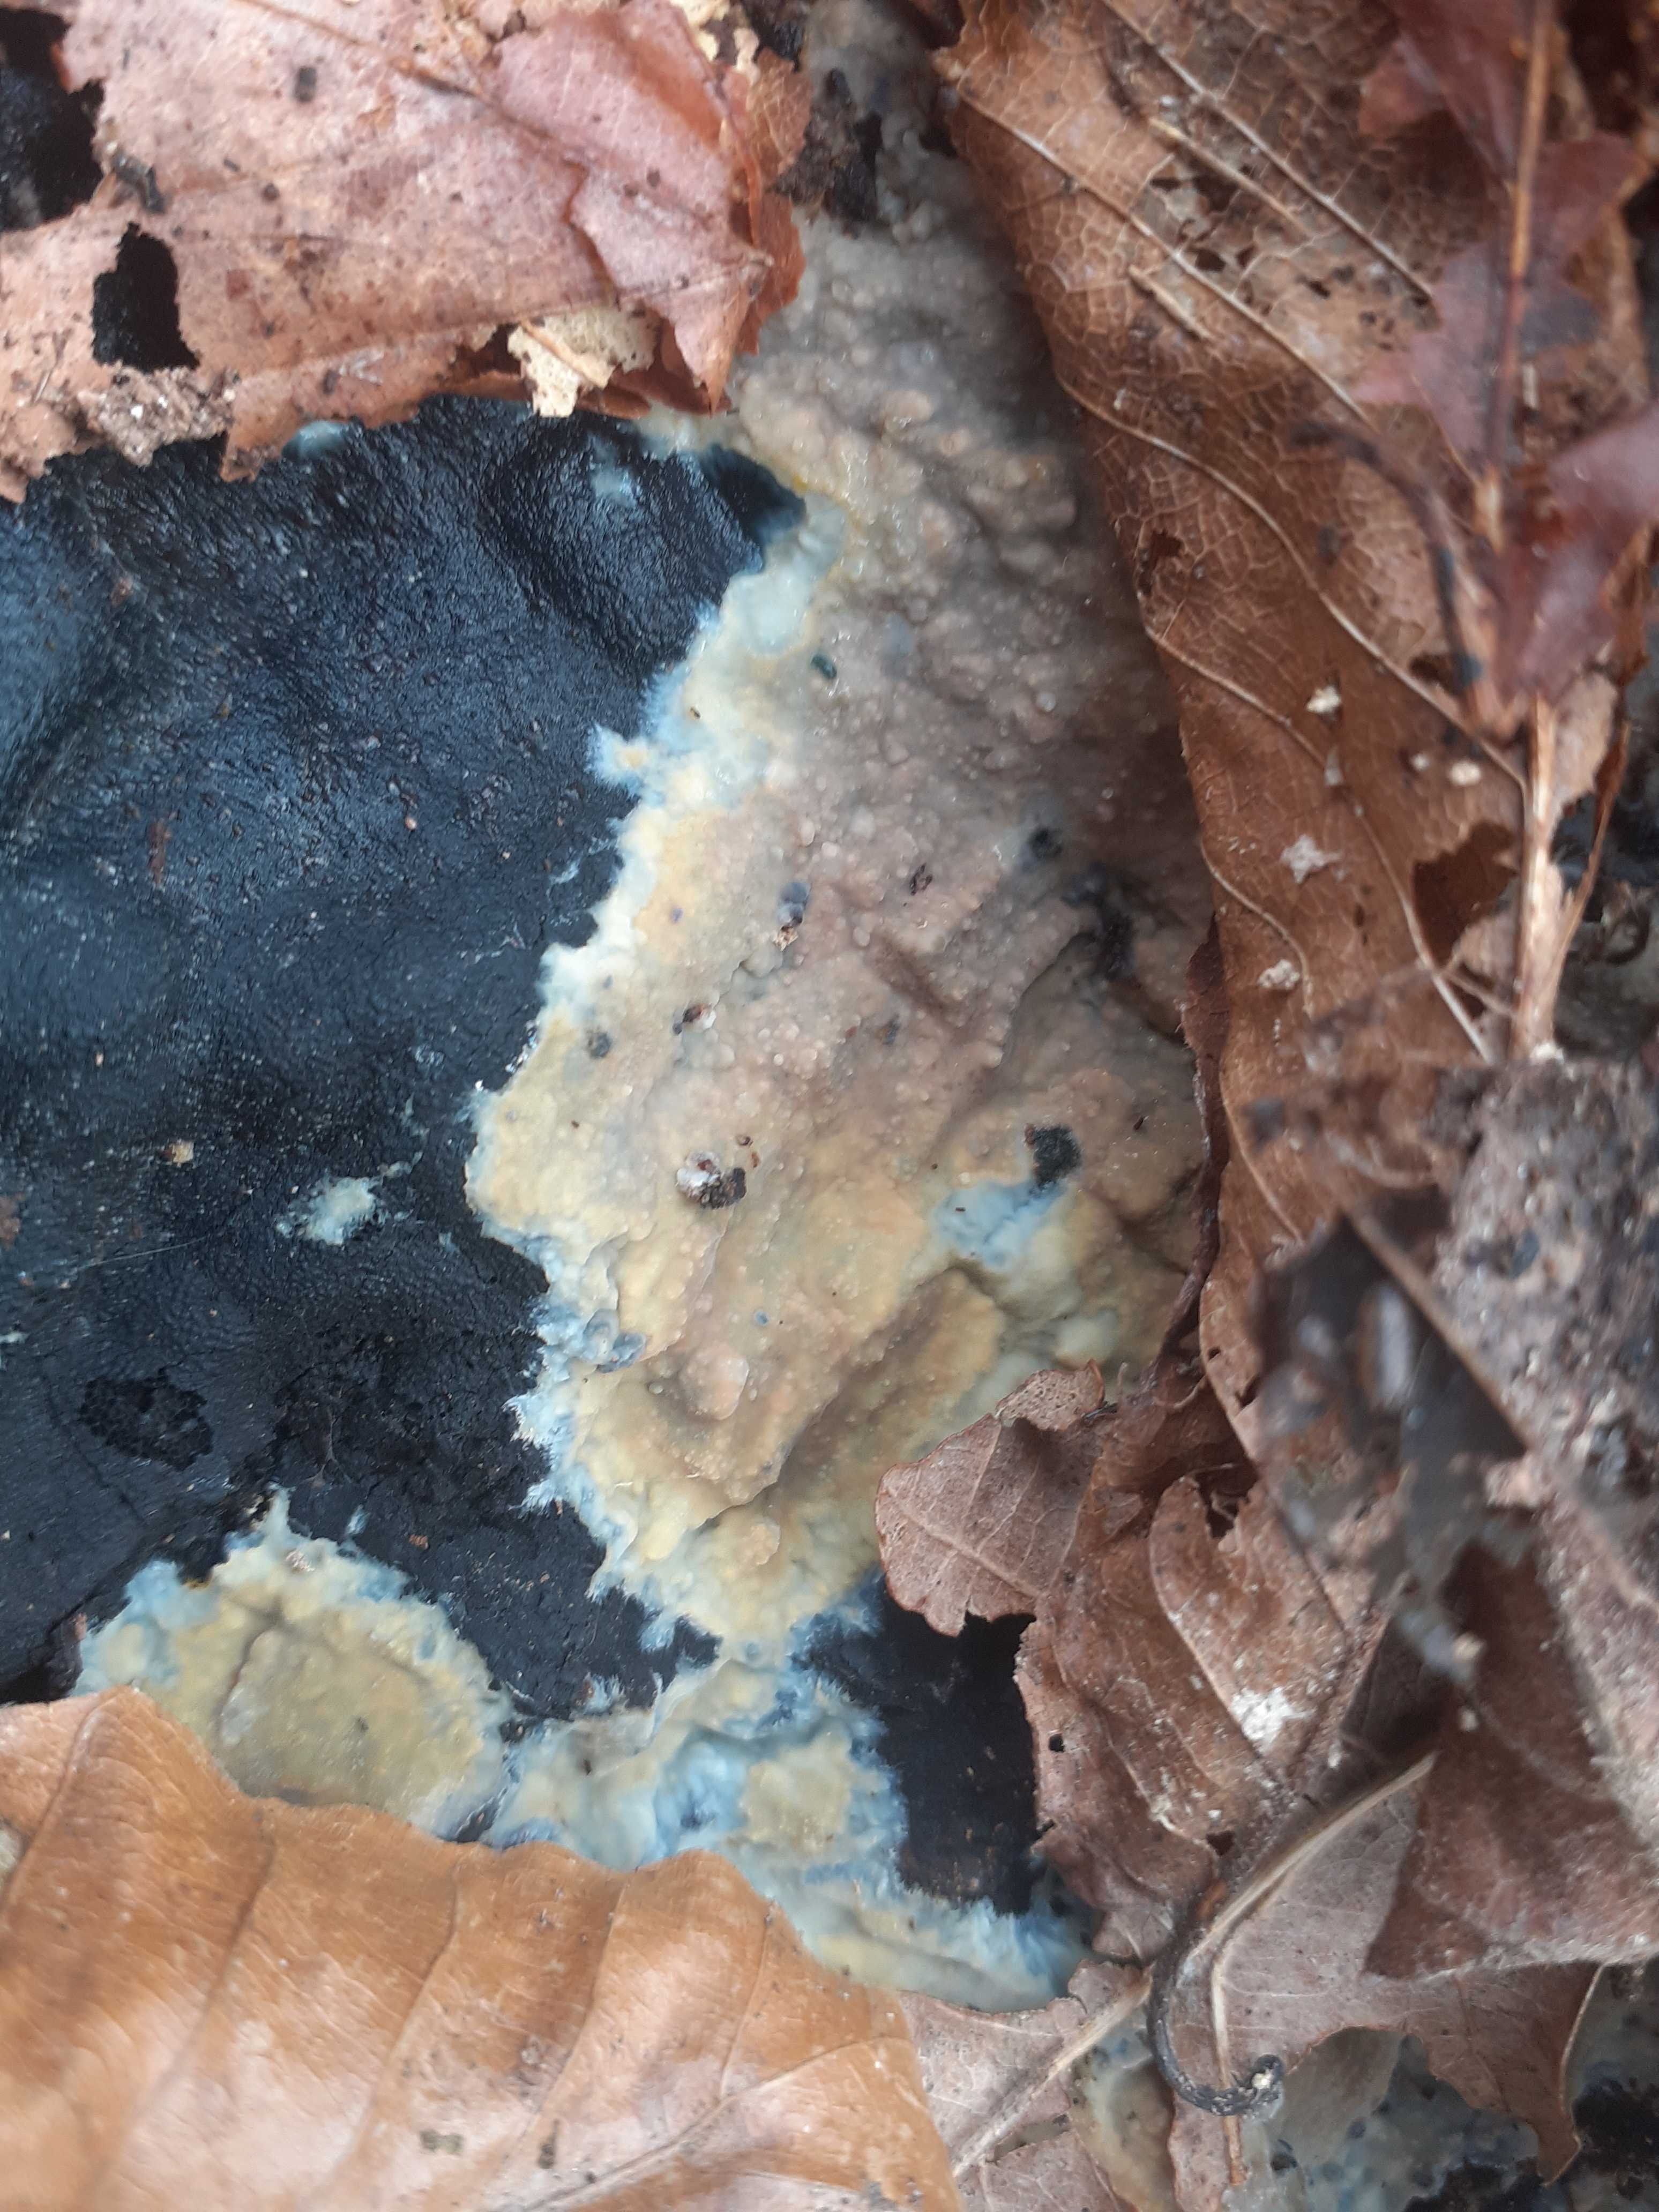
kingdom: Fungi
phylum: Basidiomycota
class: Agaricomycetes
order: Polyporales
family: Meruliaceae
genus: Cytidiella
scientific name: Cytidiella albida
